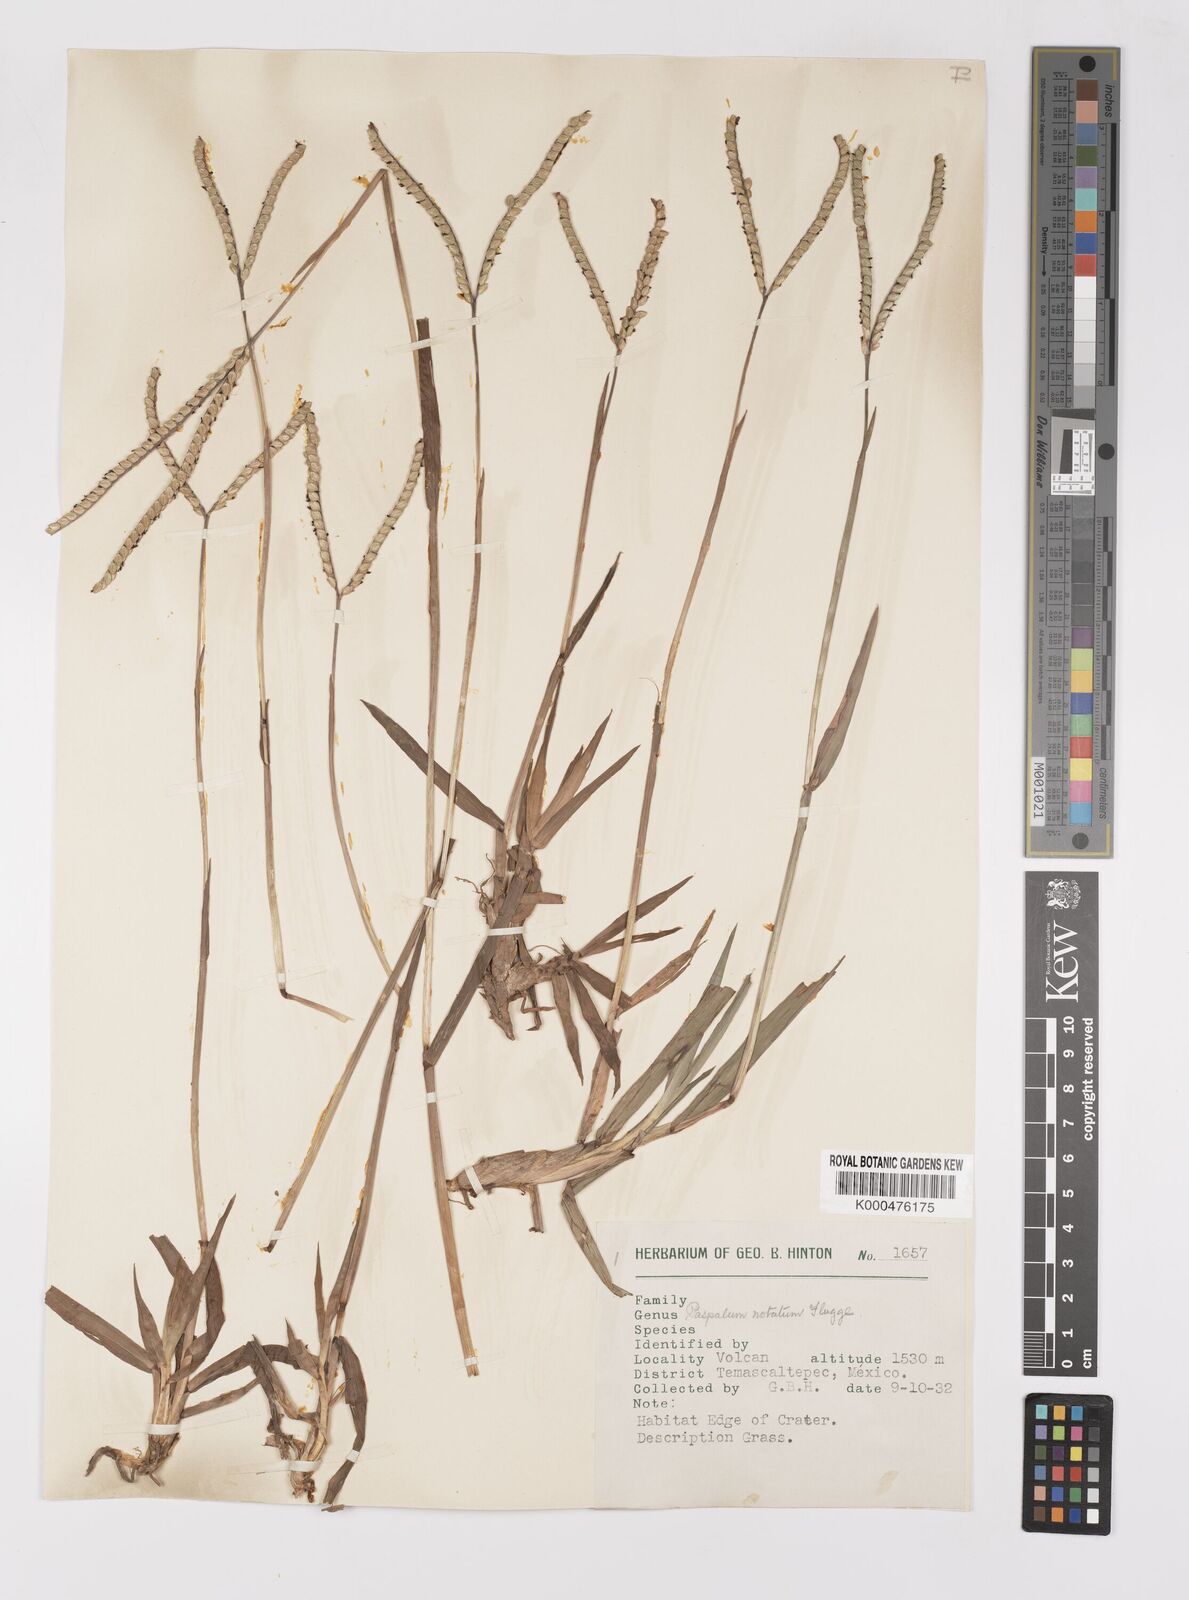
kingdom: Plantae
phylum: Tracheophyta
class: Liliopsida
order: Poales
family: Poaceae
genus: Paspalum
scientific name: Paspalum
